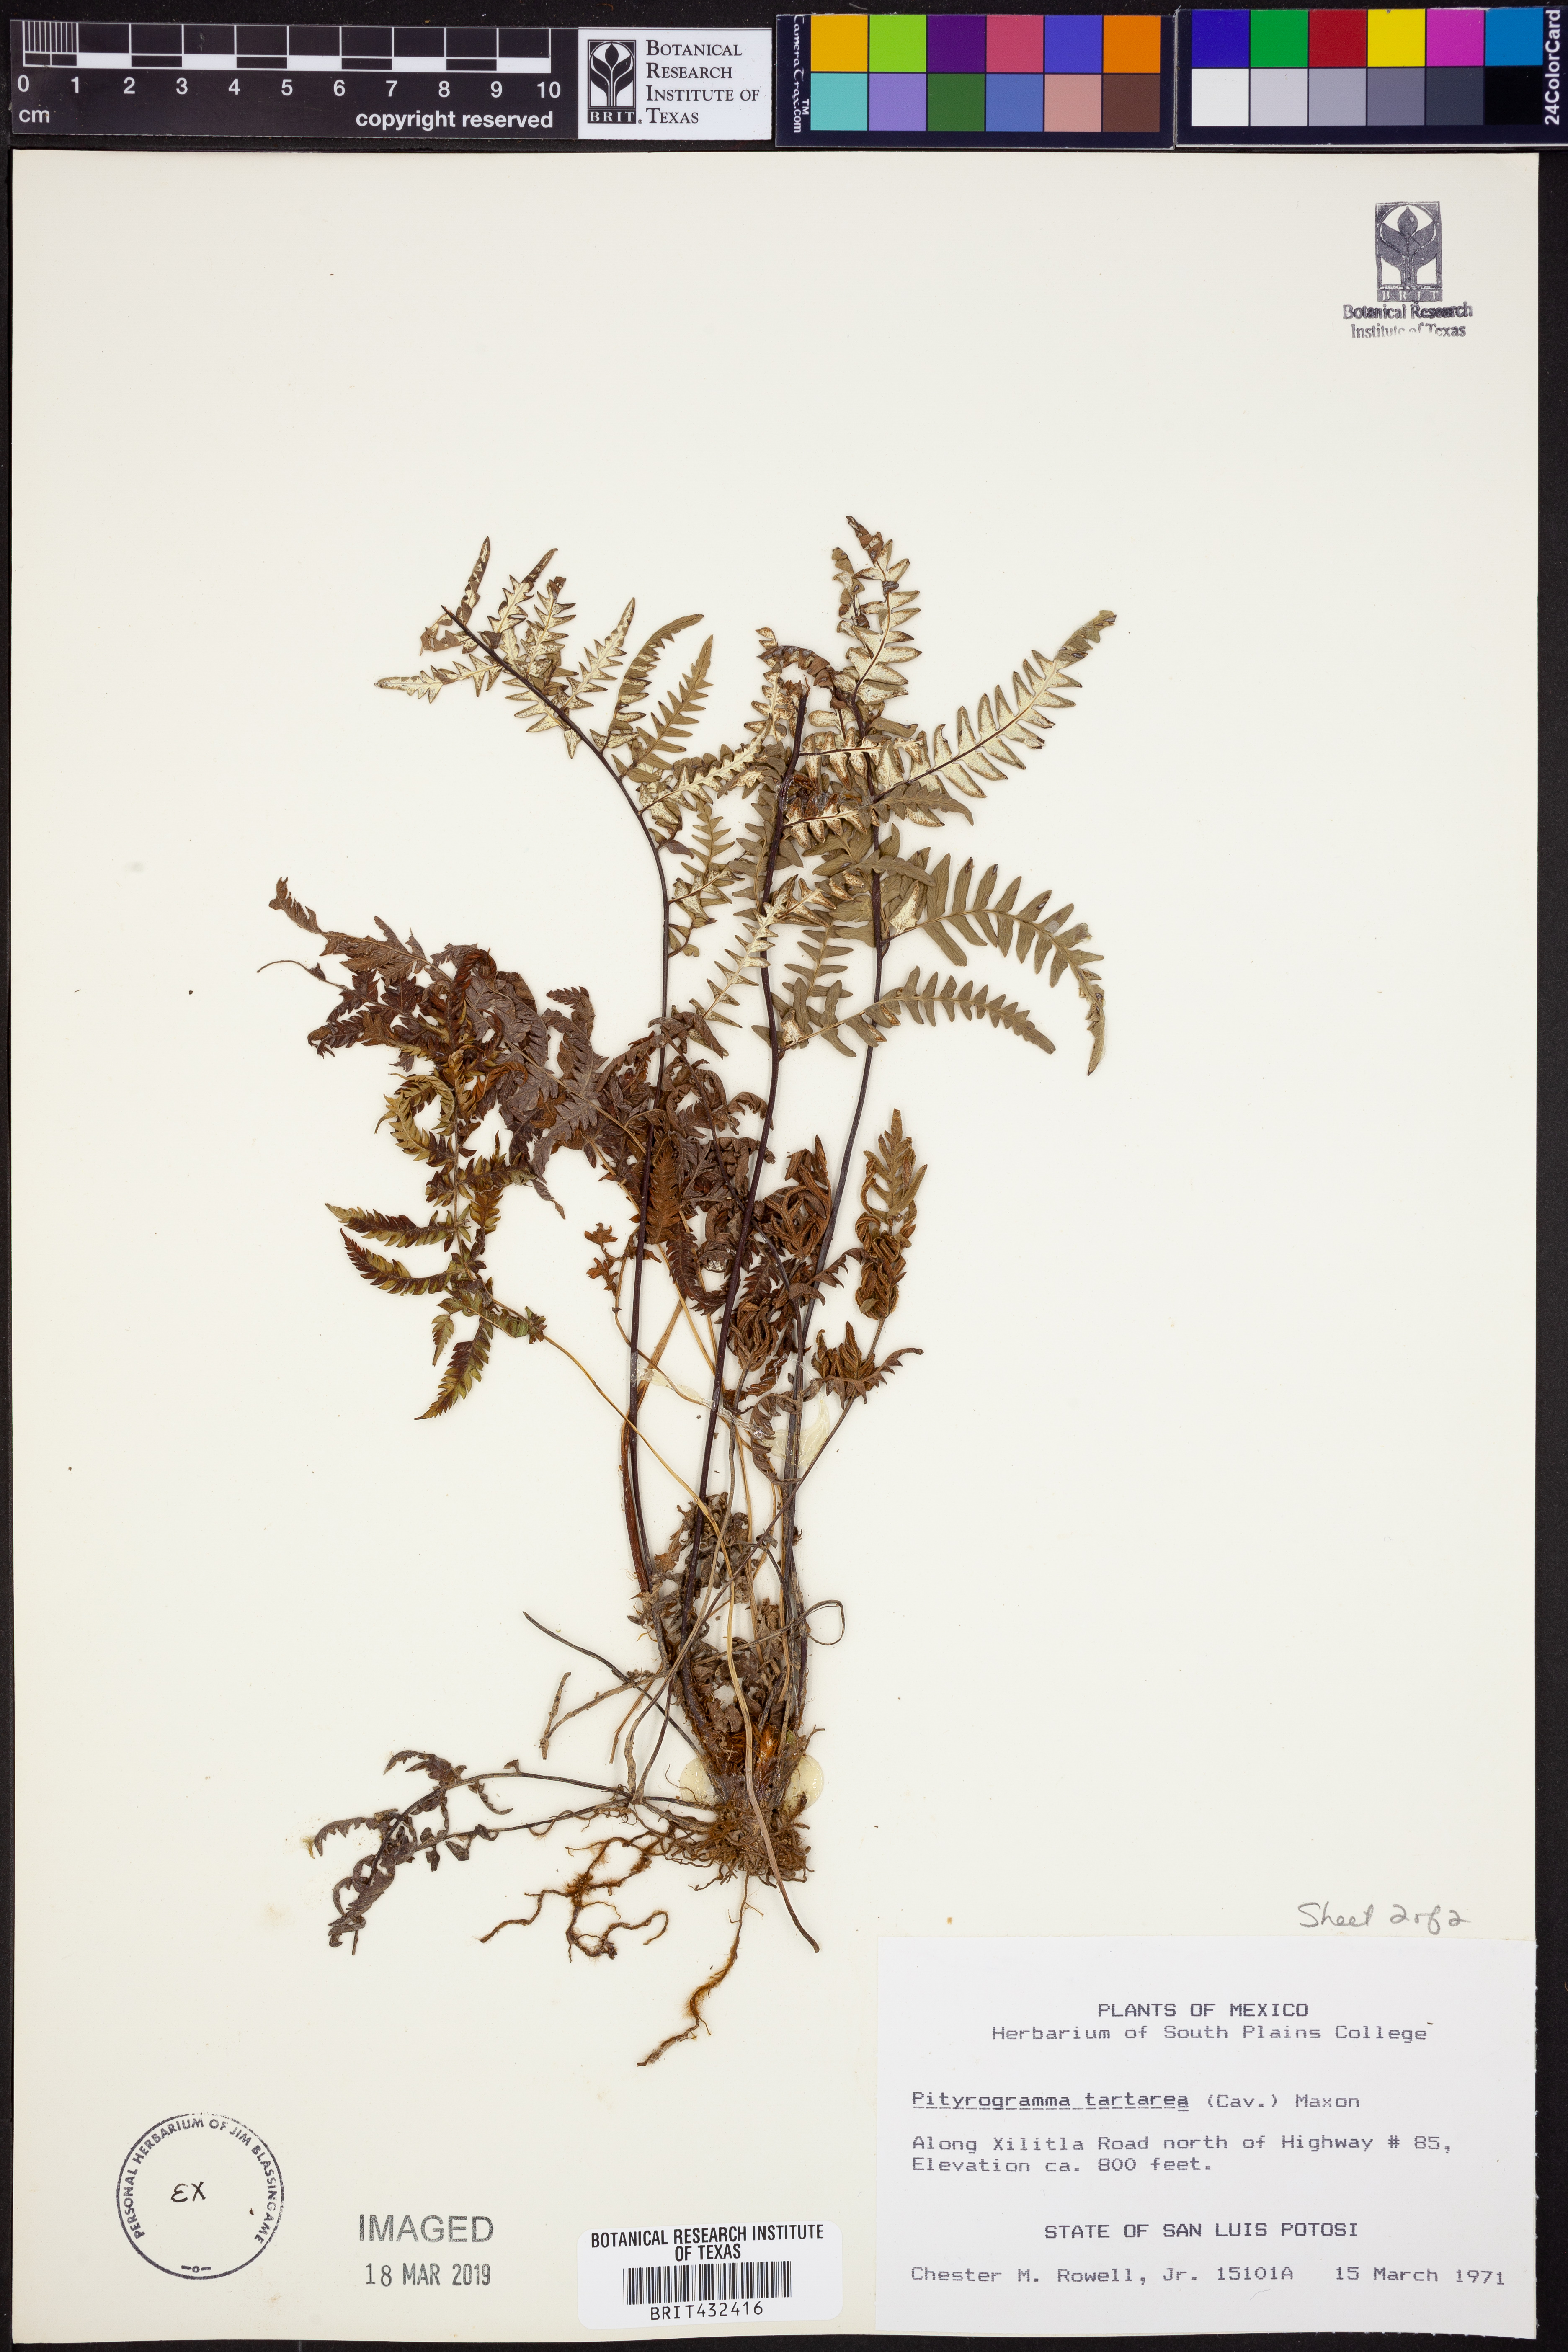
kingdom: Plantae
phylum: Tracheophyta
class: Polypodiopsida
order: Polypodiales
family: Pteridaceae
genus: Pityrogramma
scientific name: Pityrogramma ebenea
